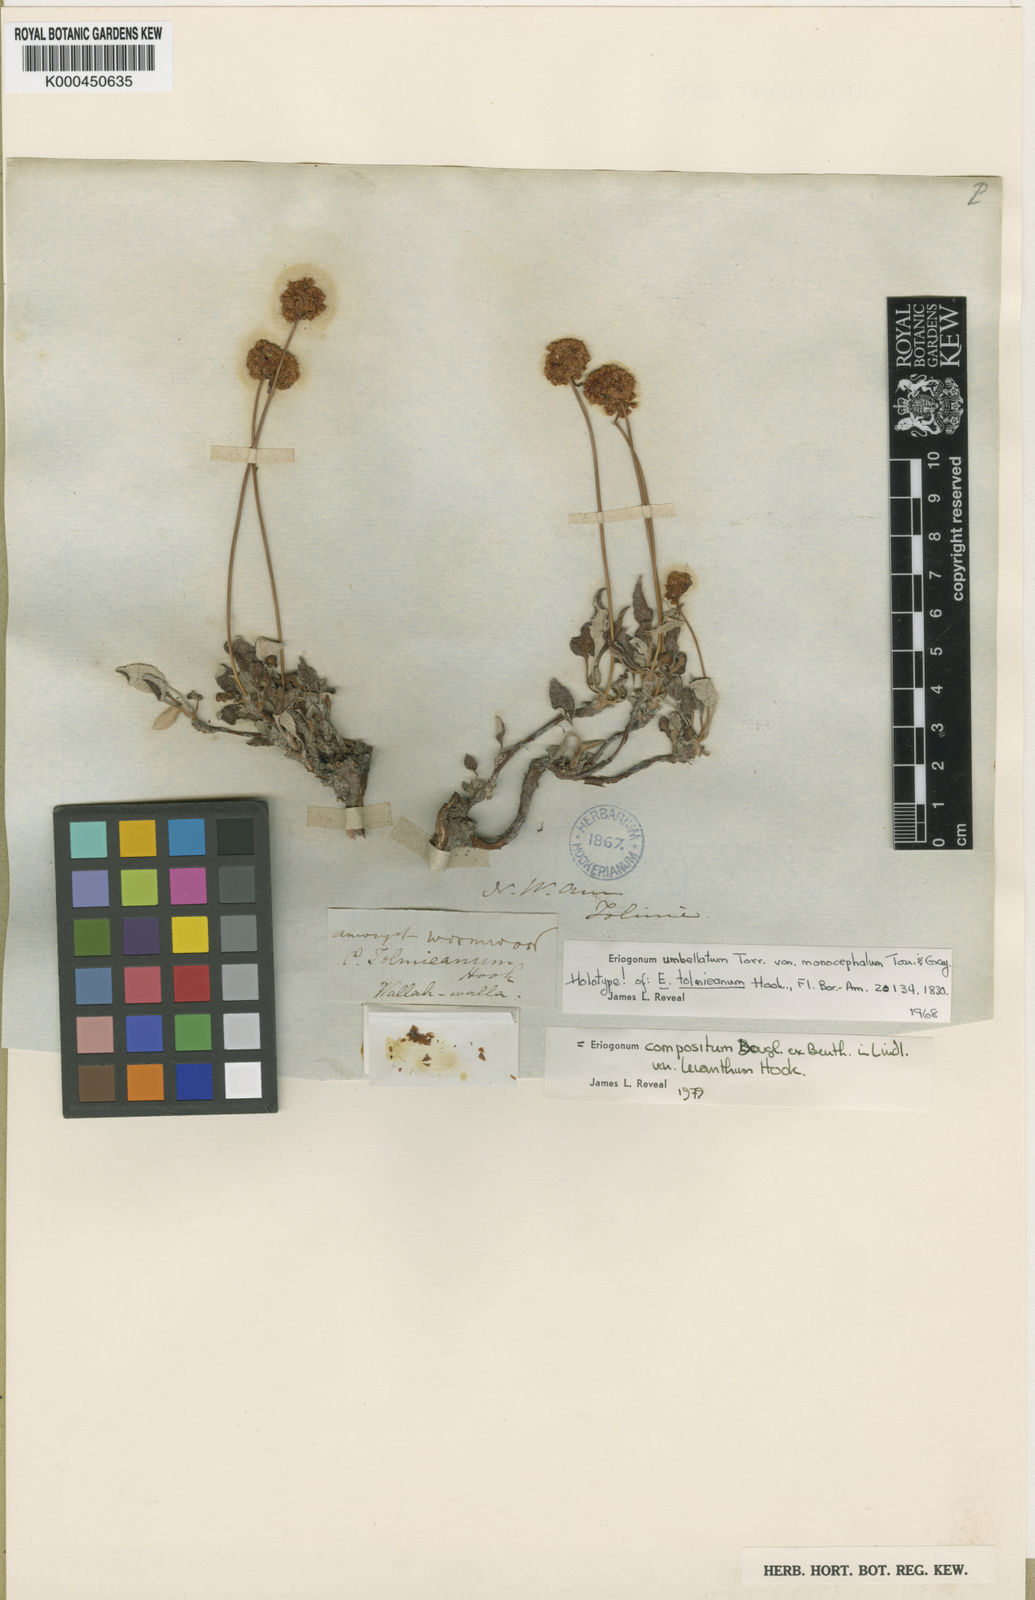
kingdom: Plantae
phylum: Tracheophyta
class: Magnoliopsida
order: Caryophyllales
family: Polygonaceae
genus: Eriogonum
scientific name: Eriogonum
